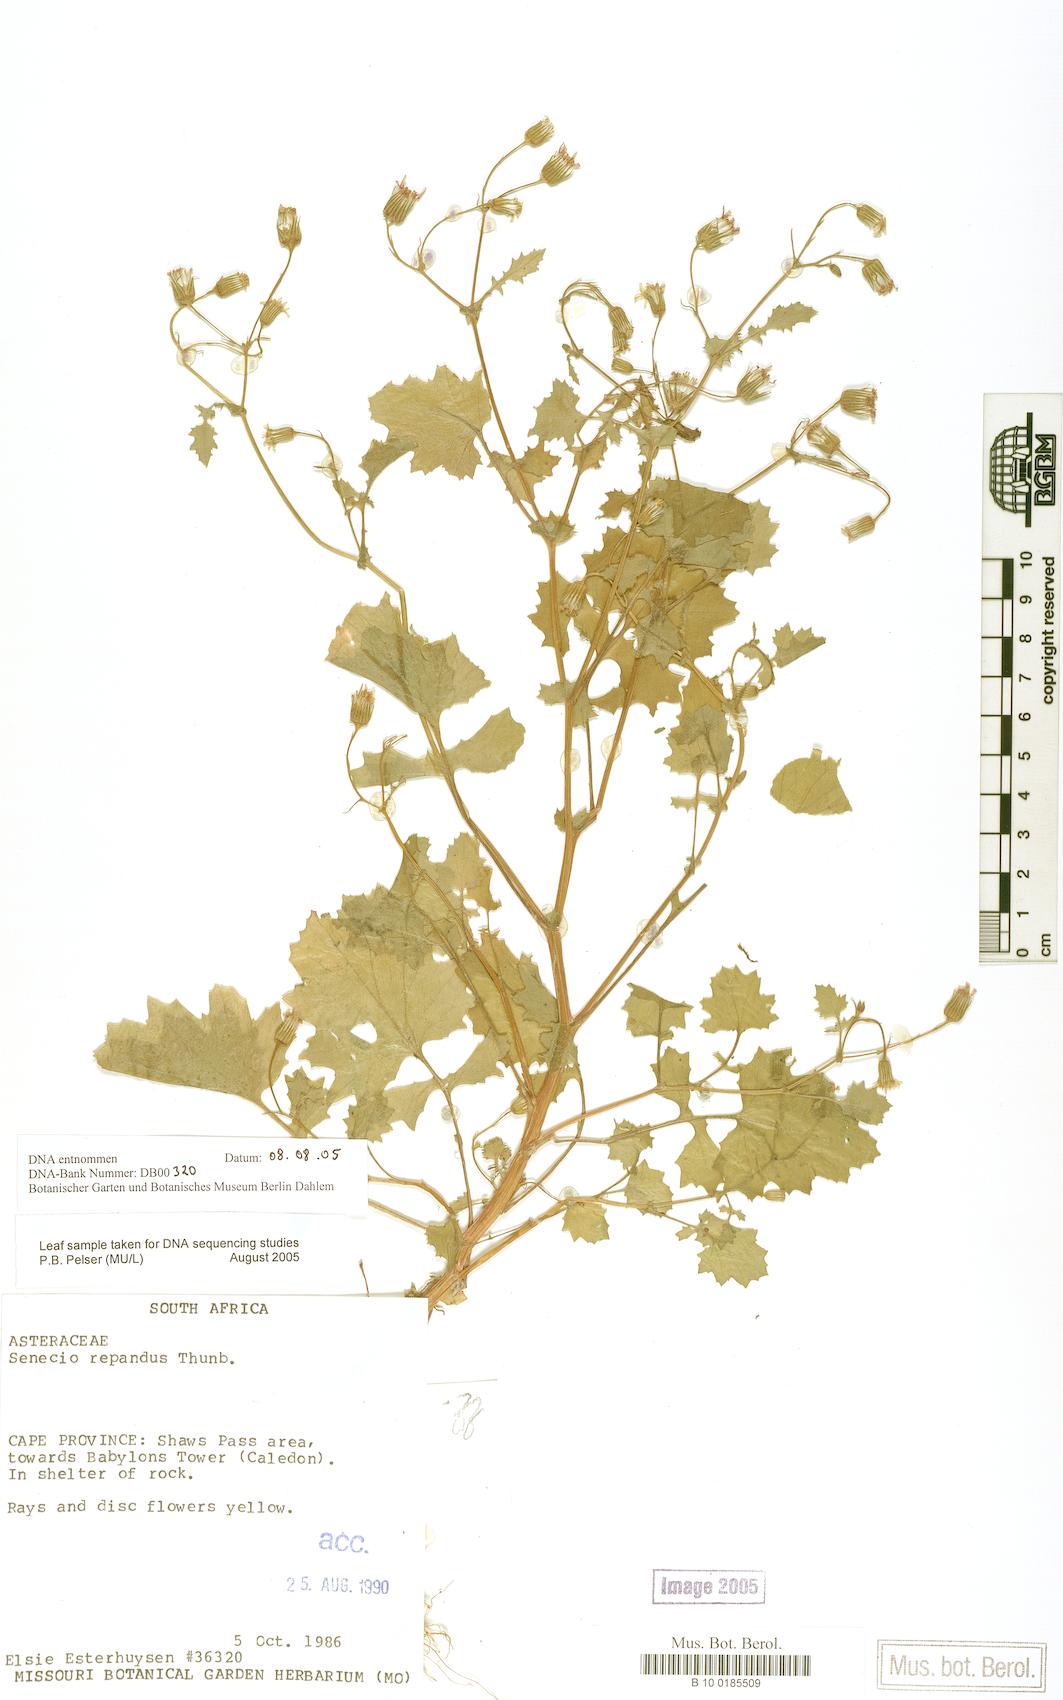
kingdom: Plantae
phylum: Tracheophyta
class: Magnoliopsida
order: Asterales
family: Asteraceae
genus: Senecio
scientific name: Senecio repandus
